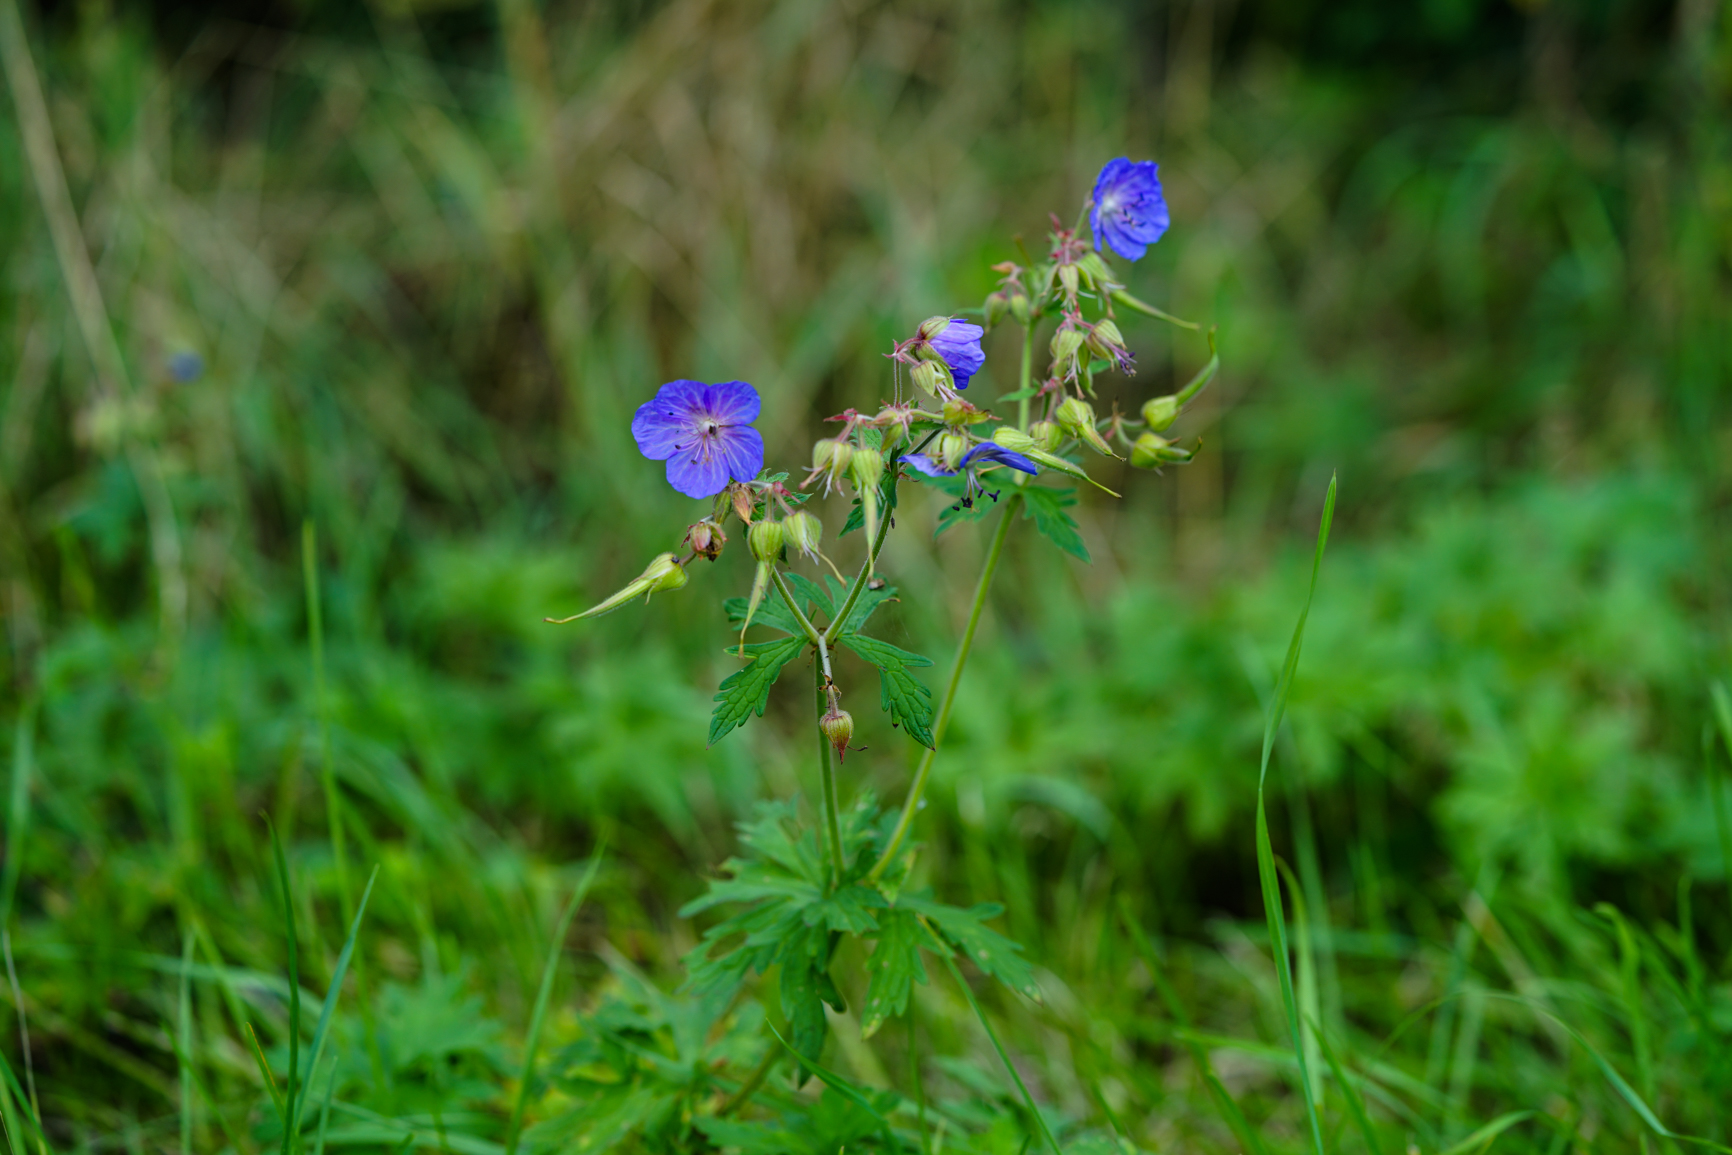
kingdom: Plantae
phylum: Tracheophyta
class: Magnoliopsida
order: Geraniales
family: Geraniaceae
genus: Geranium
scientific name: Geranium pratense
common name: Meadow crane's-bill
